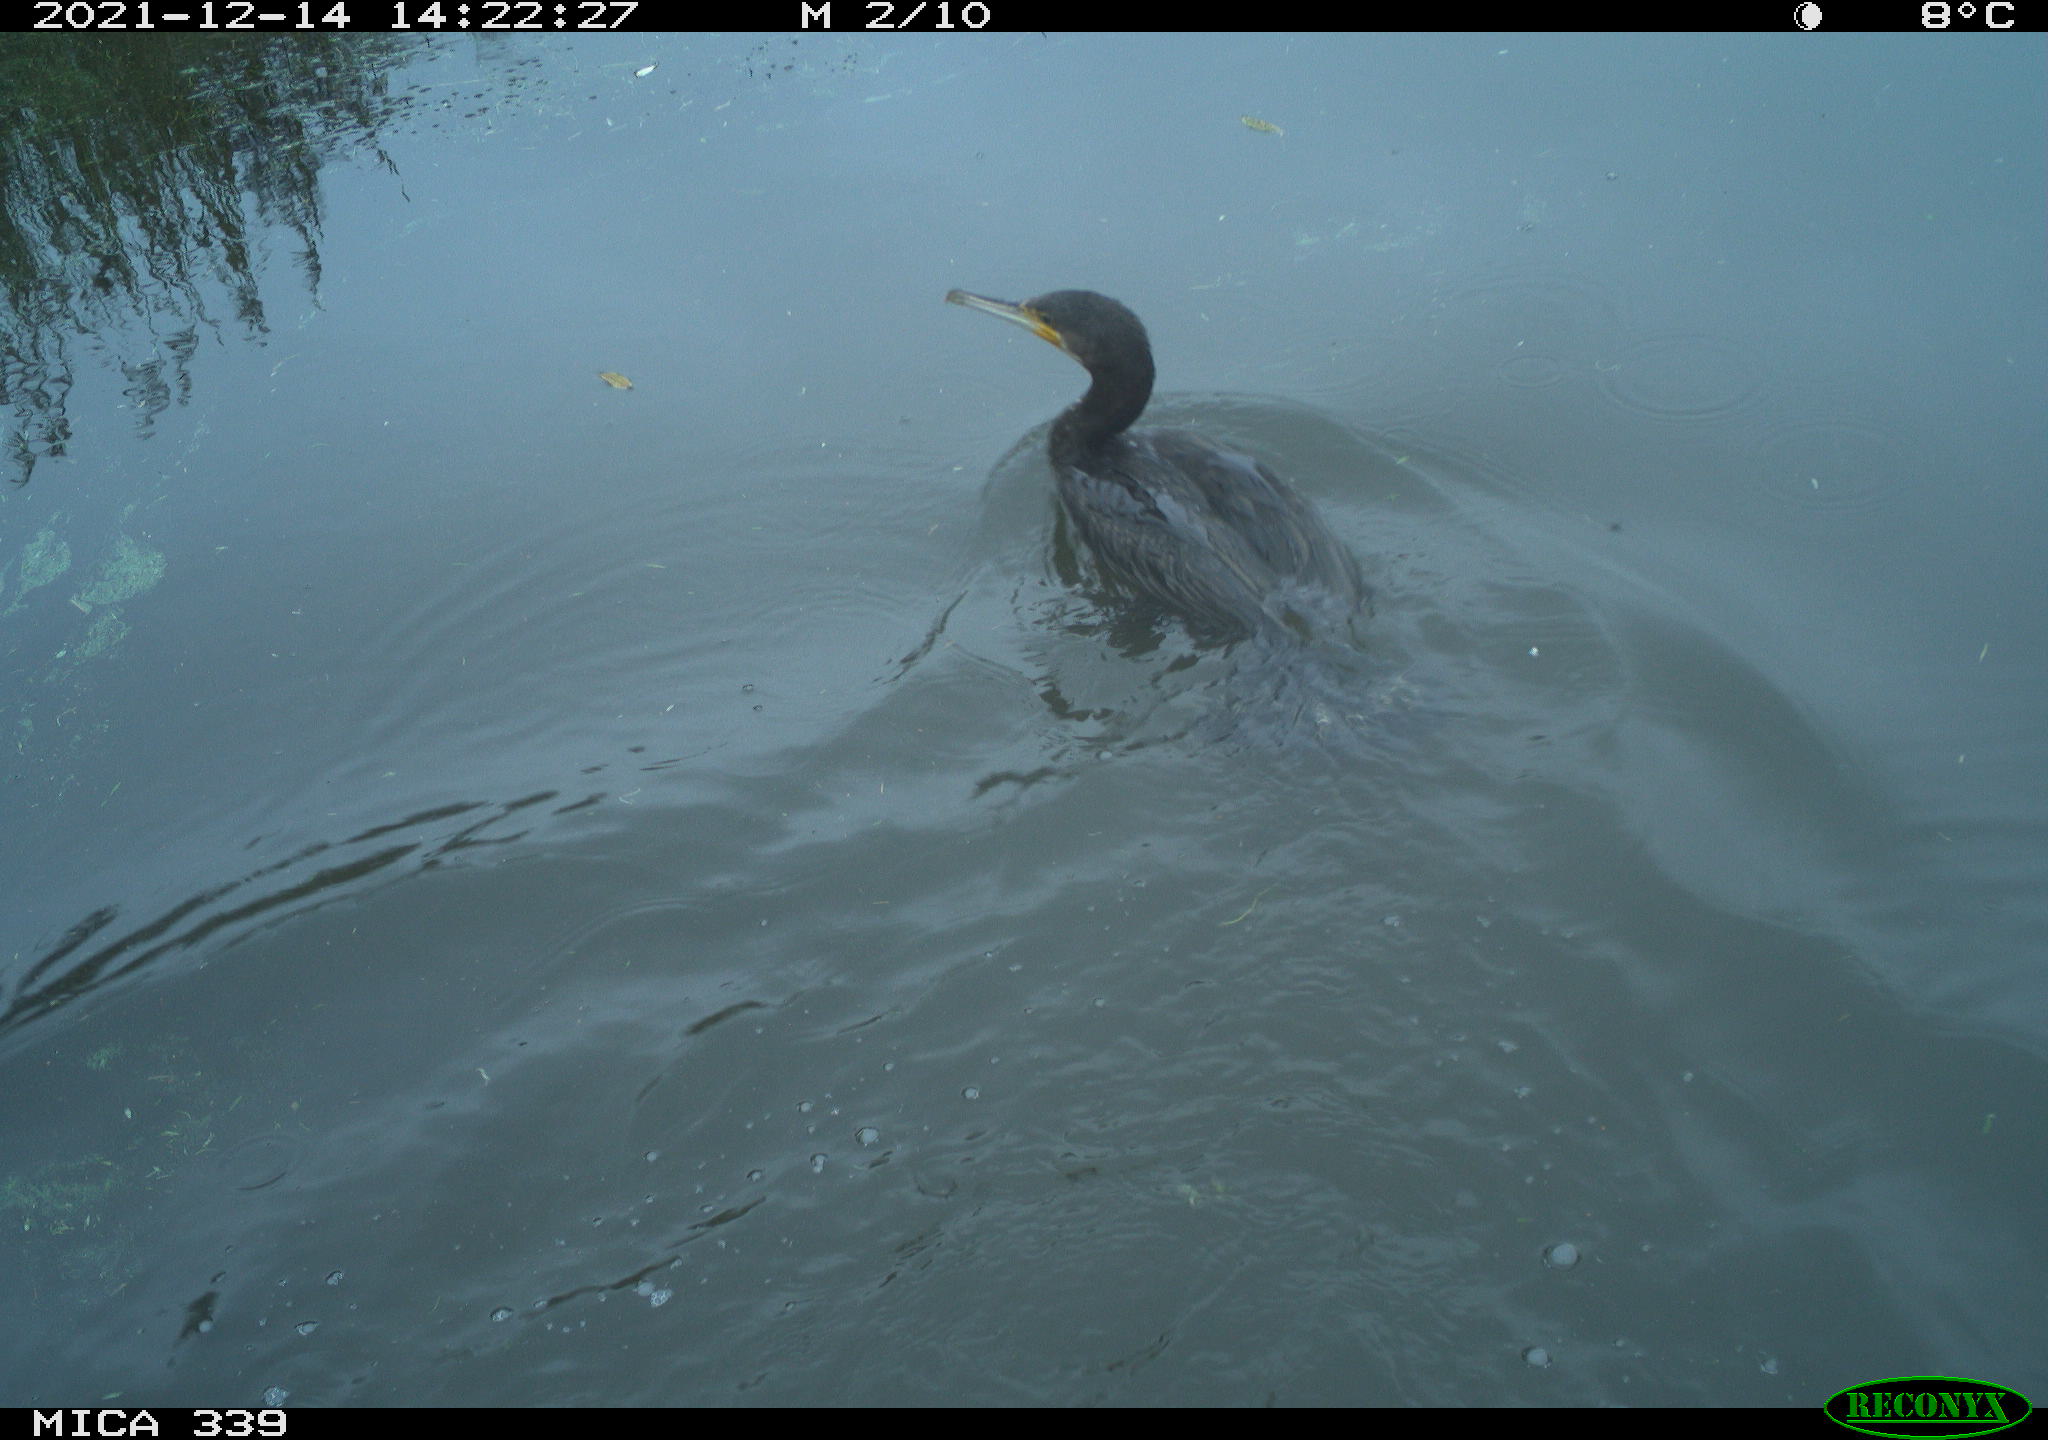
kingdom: Animalia
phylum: Chordata
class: Aves
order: Suliformes
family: Phalacrocoracidae
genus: Phalacrocorax
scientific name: Phalacrocorax carbo
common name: Great cormorant
